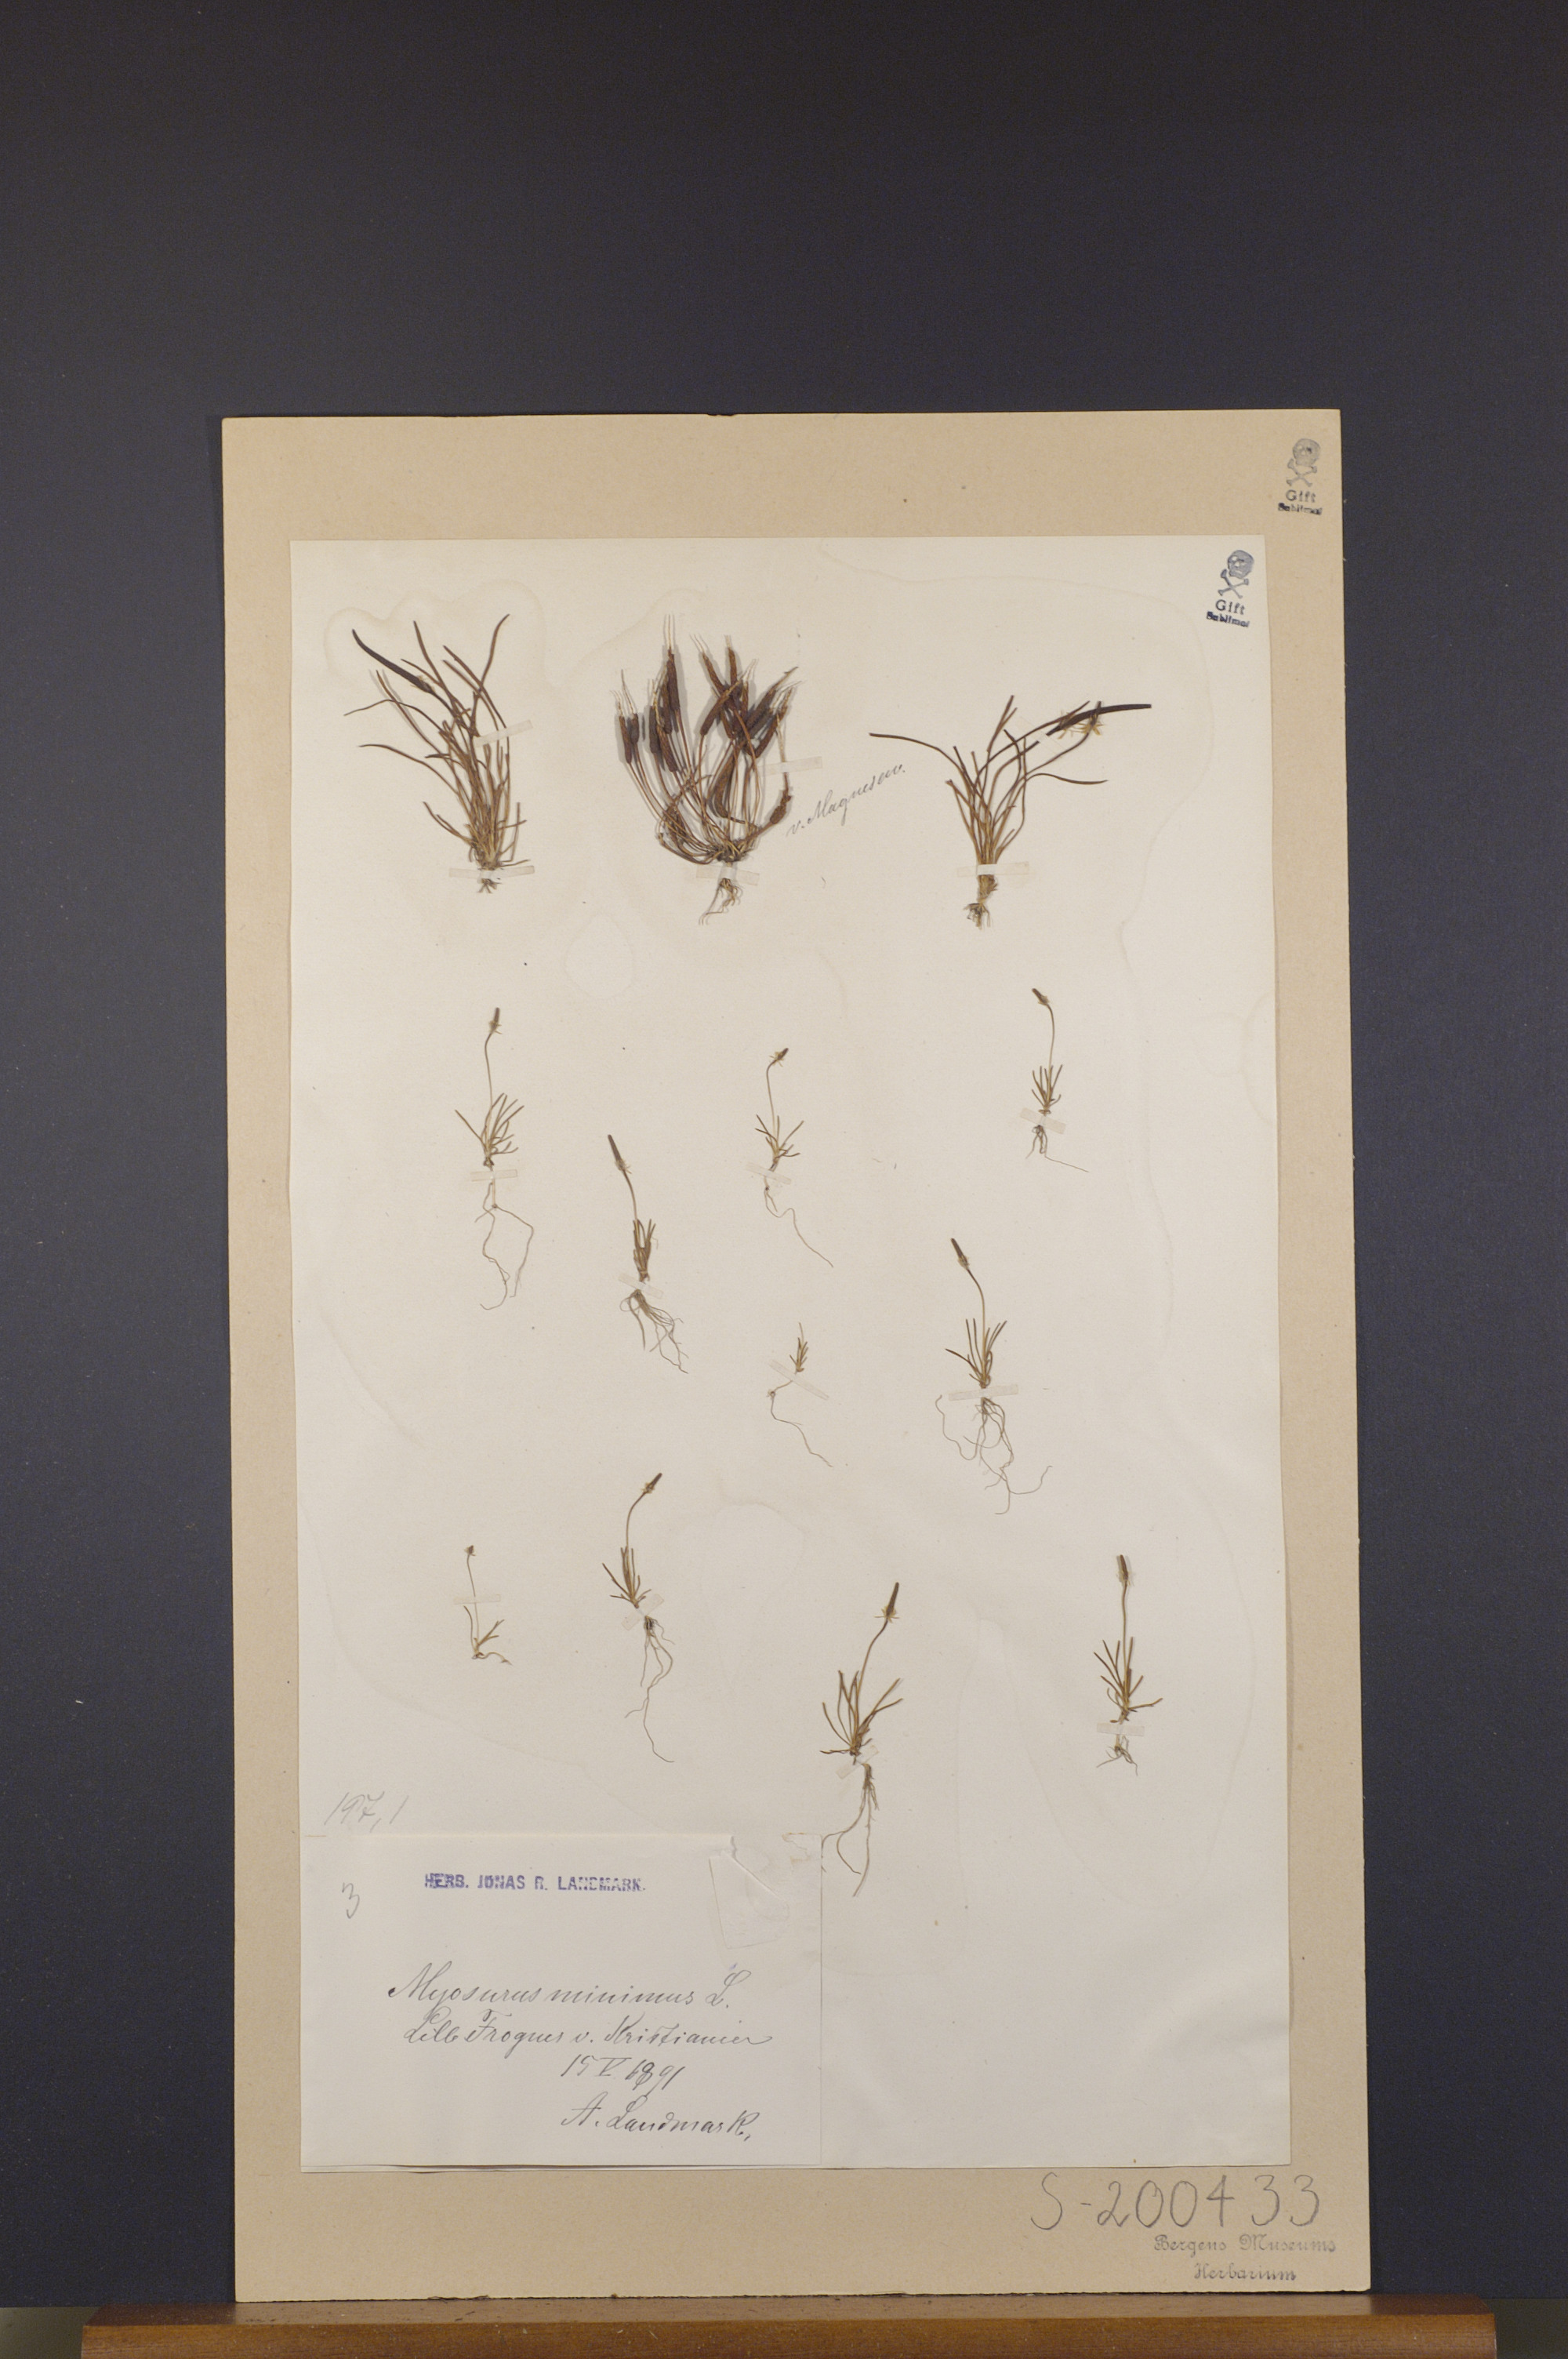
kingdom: Plantae
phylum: Tracheophyta
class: Magnoliopsida
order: Ranunculales
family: Ranunculaceae
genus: Myosurus
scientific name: Myosurus minimus
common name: Mousetail
